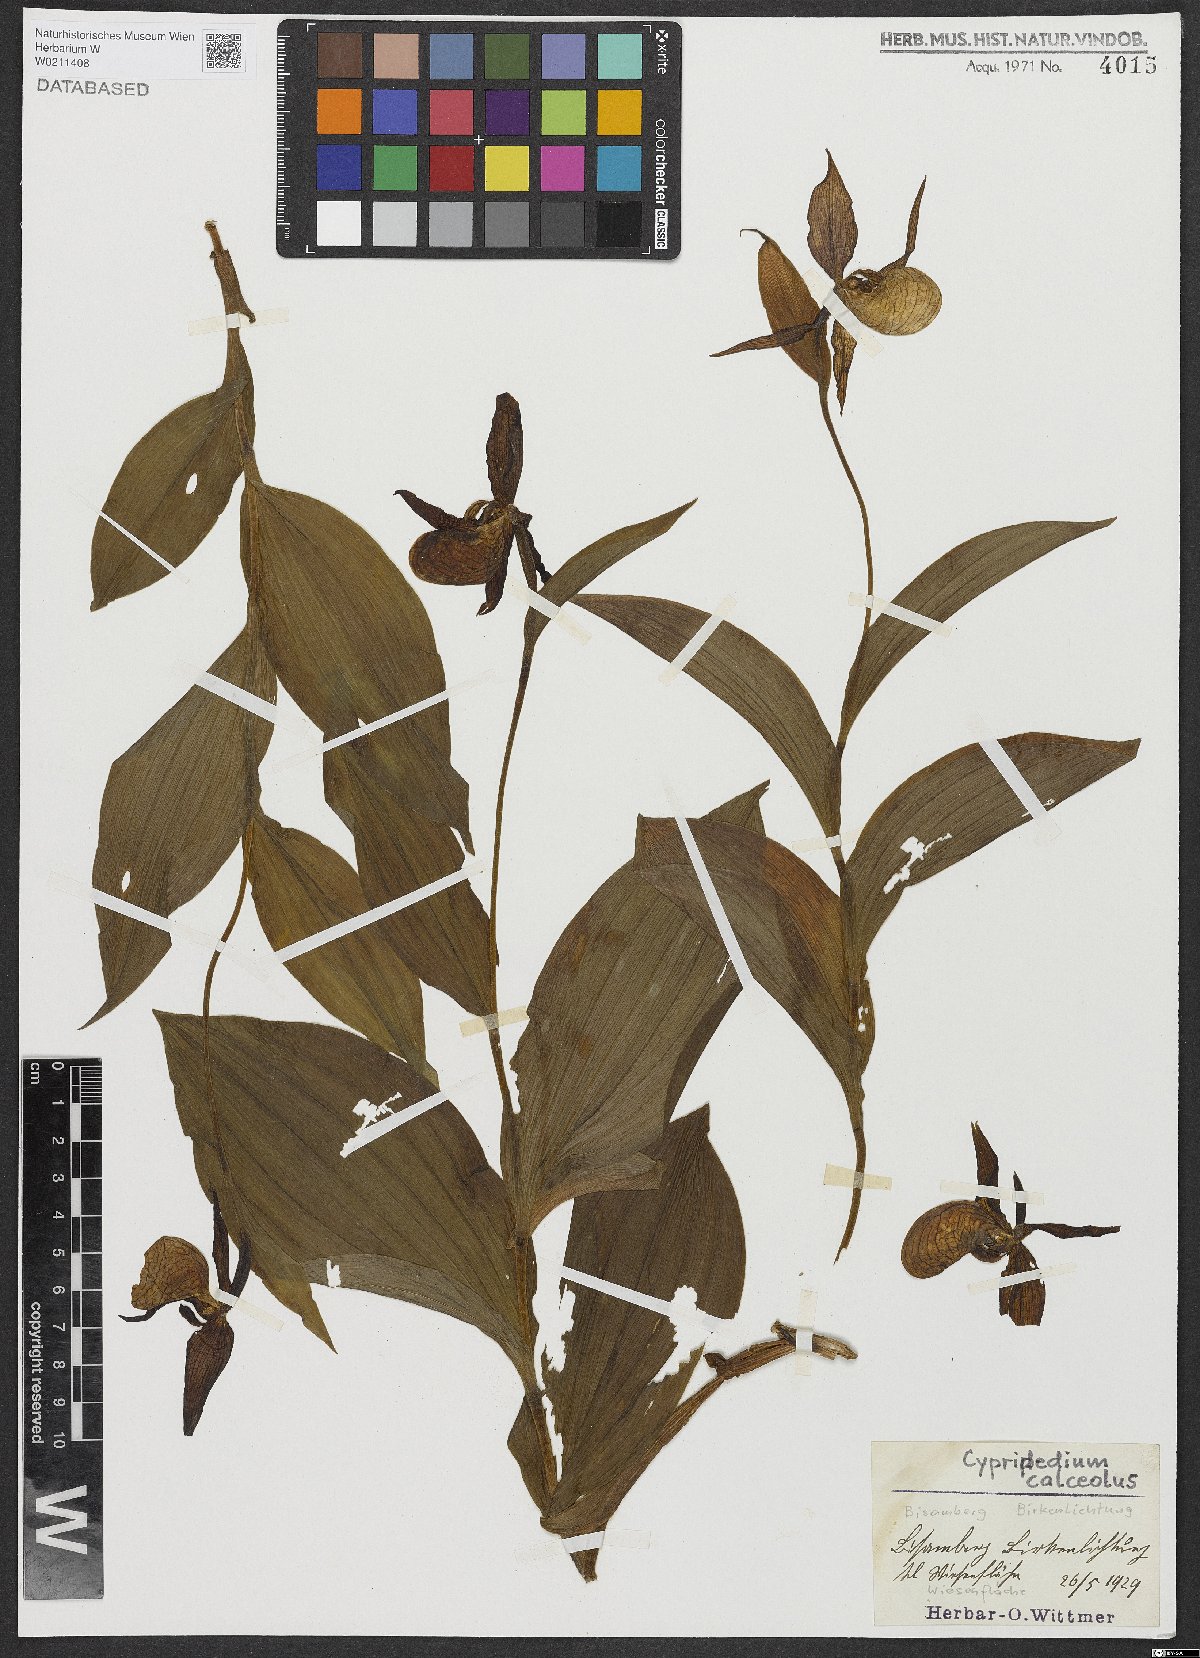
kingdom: Plantae
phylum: Tracheophyta
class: Liliopsida
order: Asparagales
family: Orchidaceae
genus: Cypripedium
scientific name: Cypripedium calceolus
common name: Lady's-slipper
